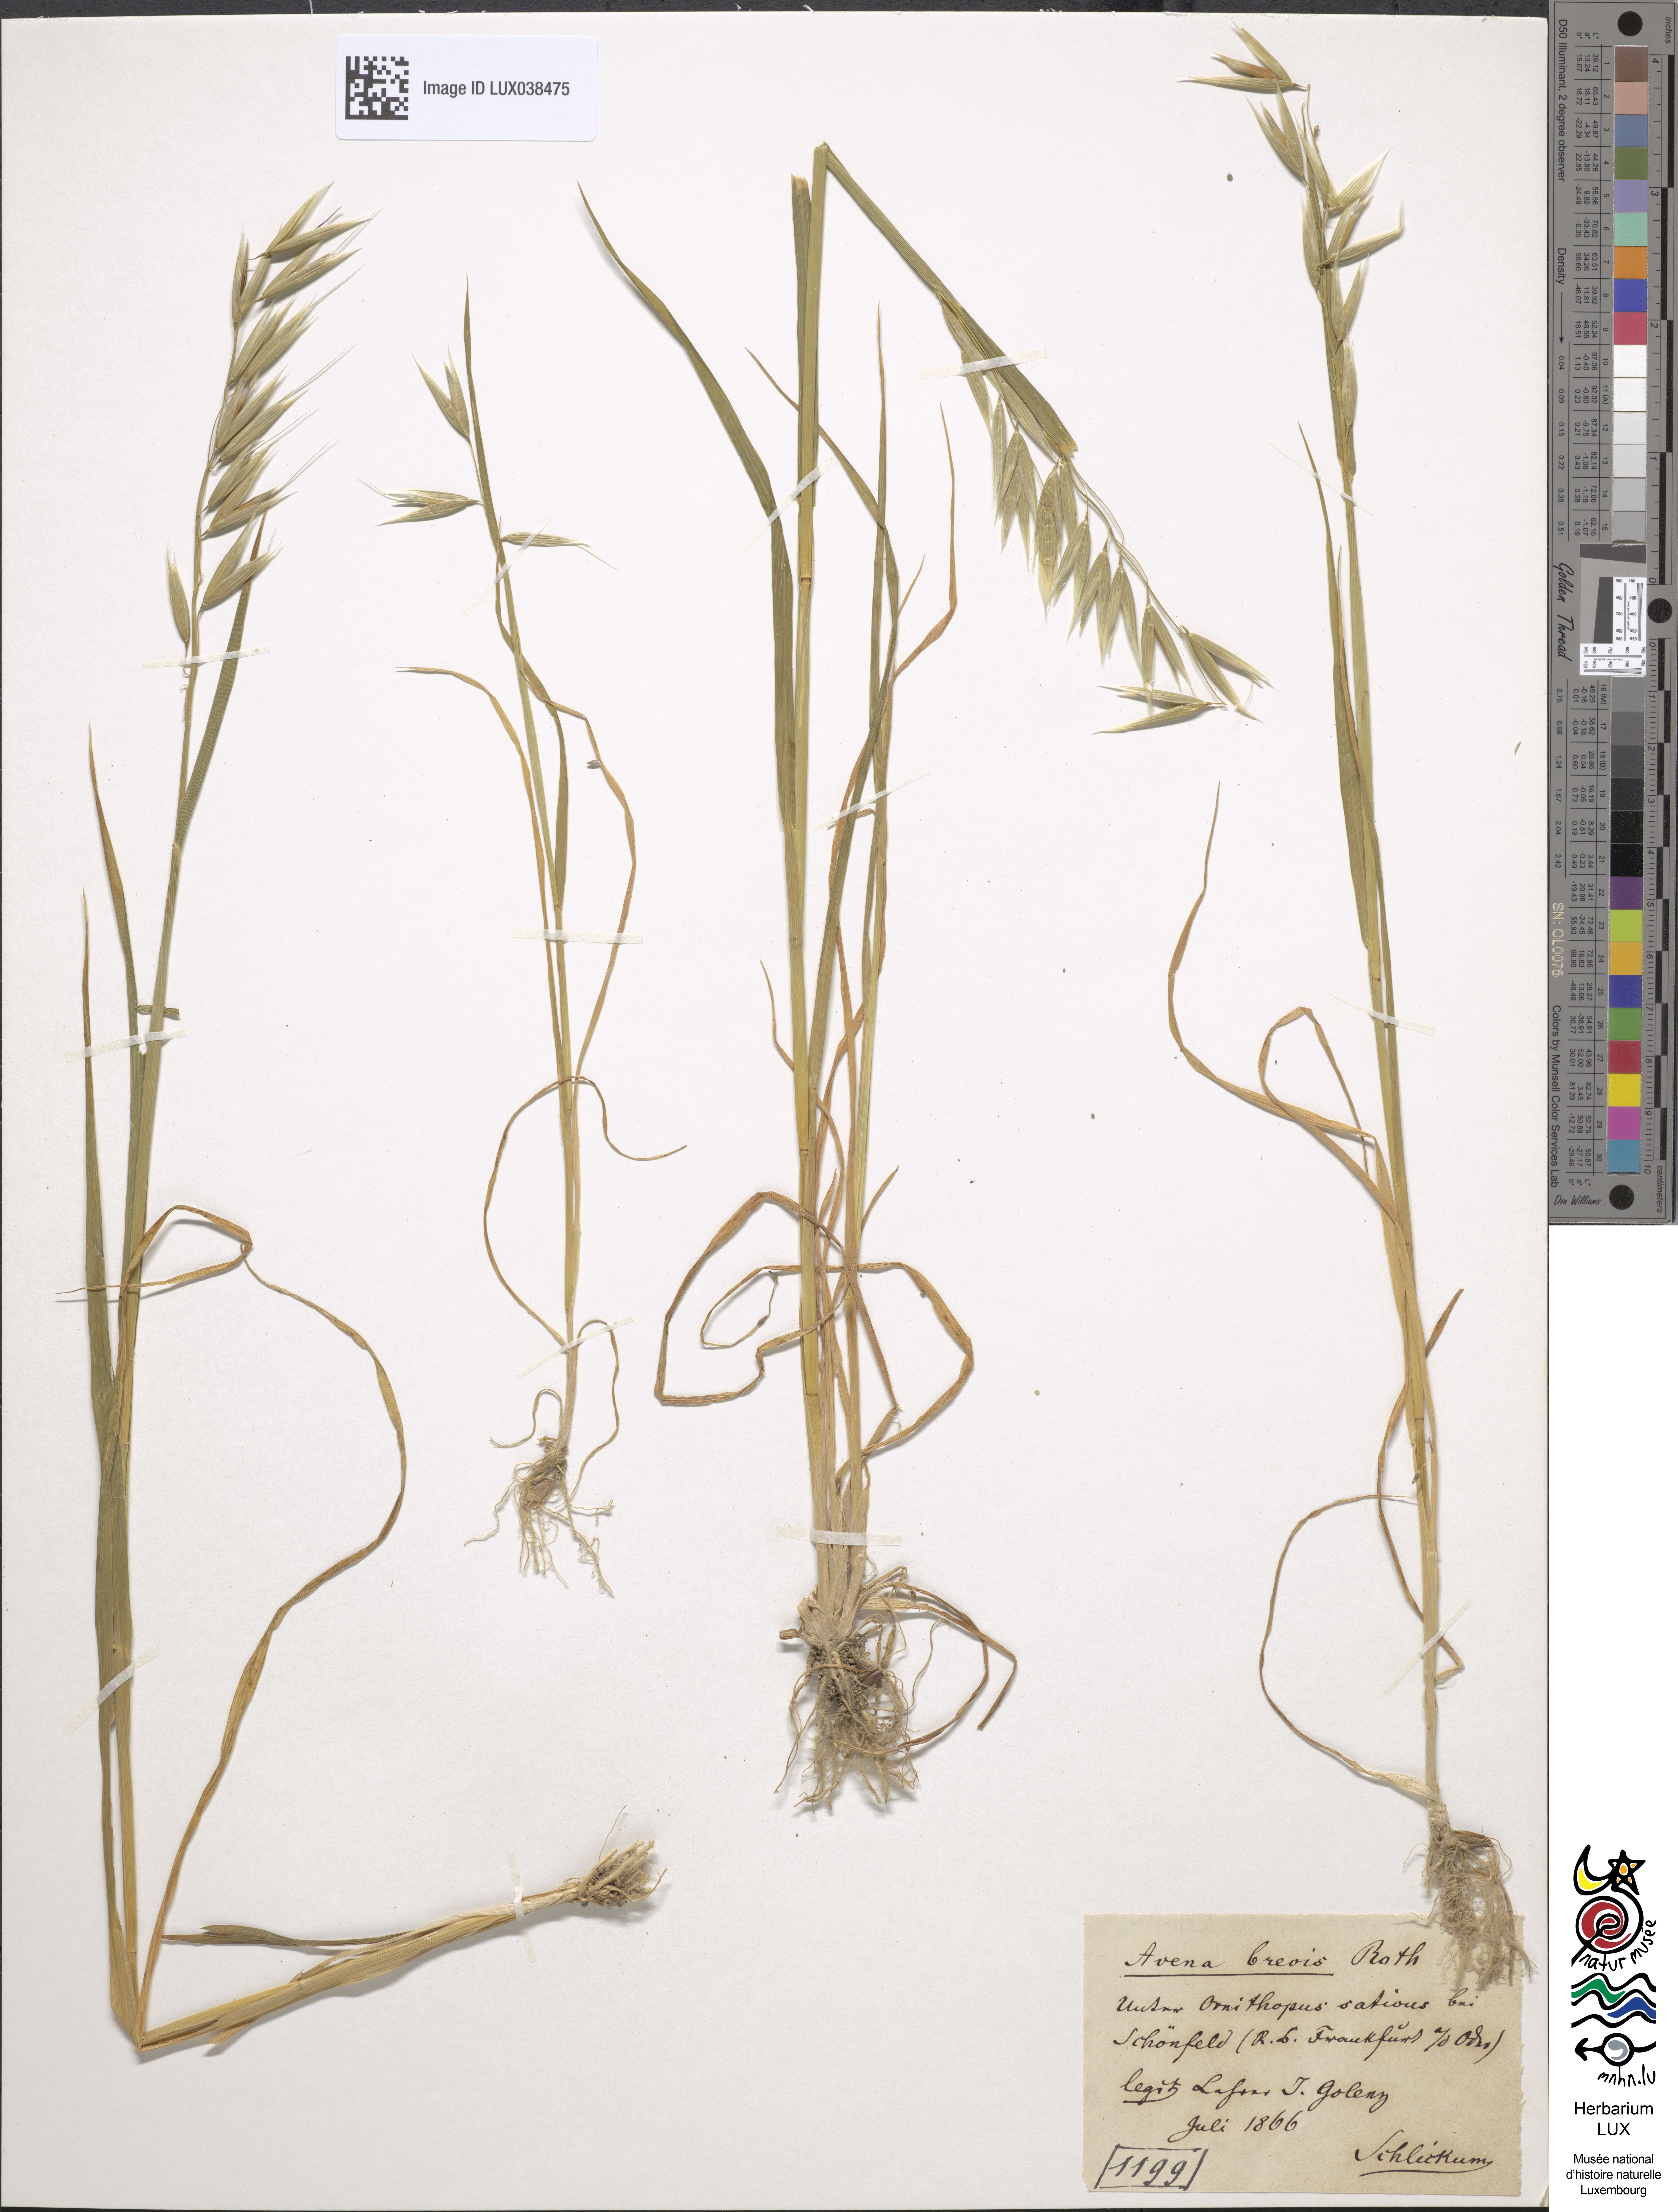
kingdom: Plantae
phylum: Tracheophyta
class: Liliopsida
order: Poales
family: Poaceae
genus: Avena
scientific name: Avena strigosa
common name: Bristle oat
